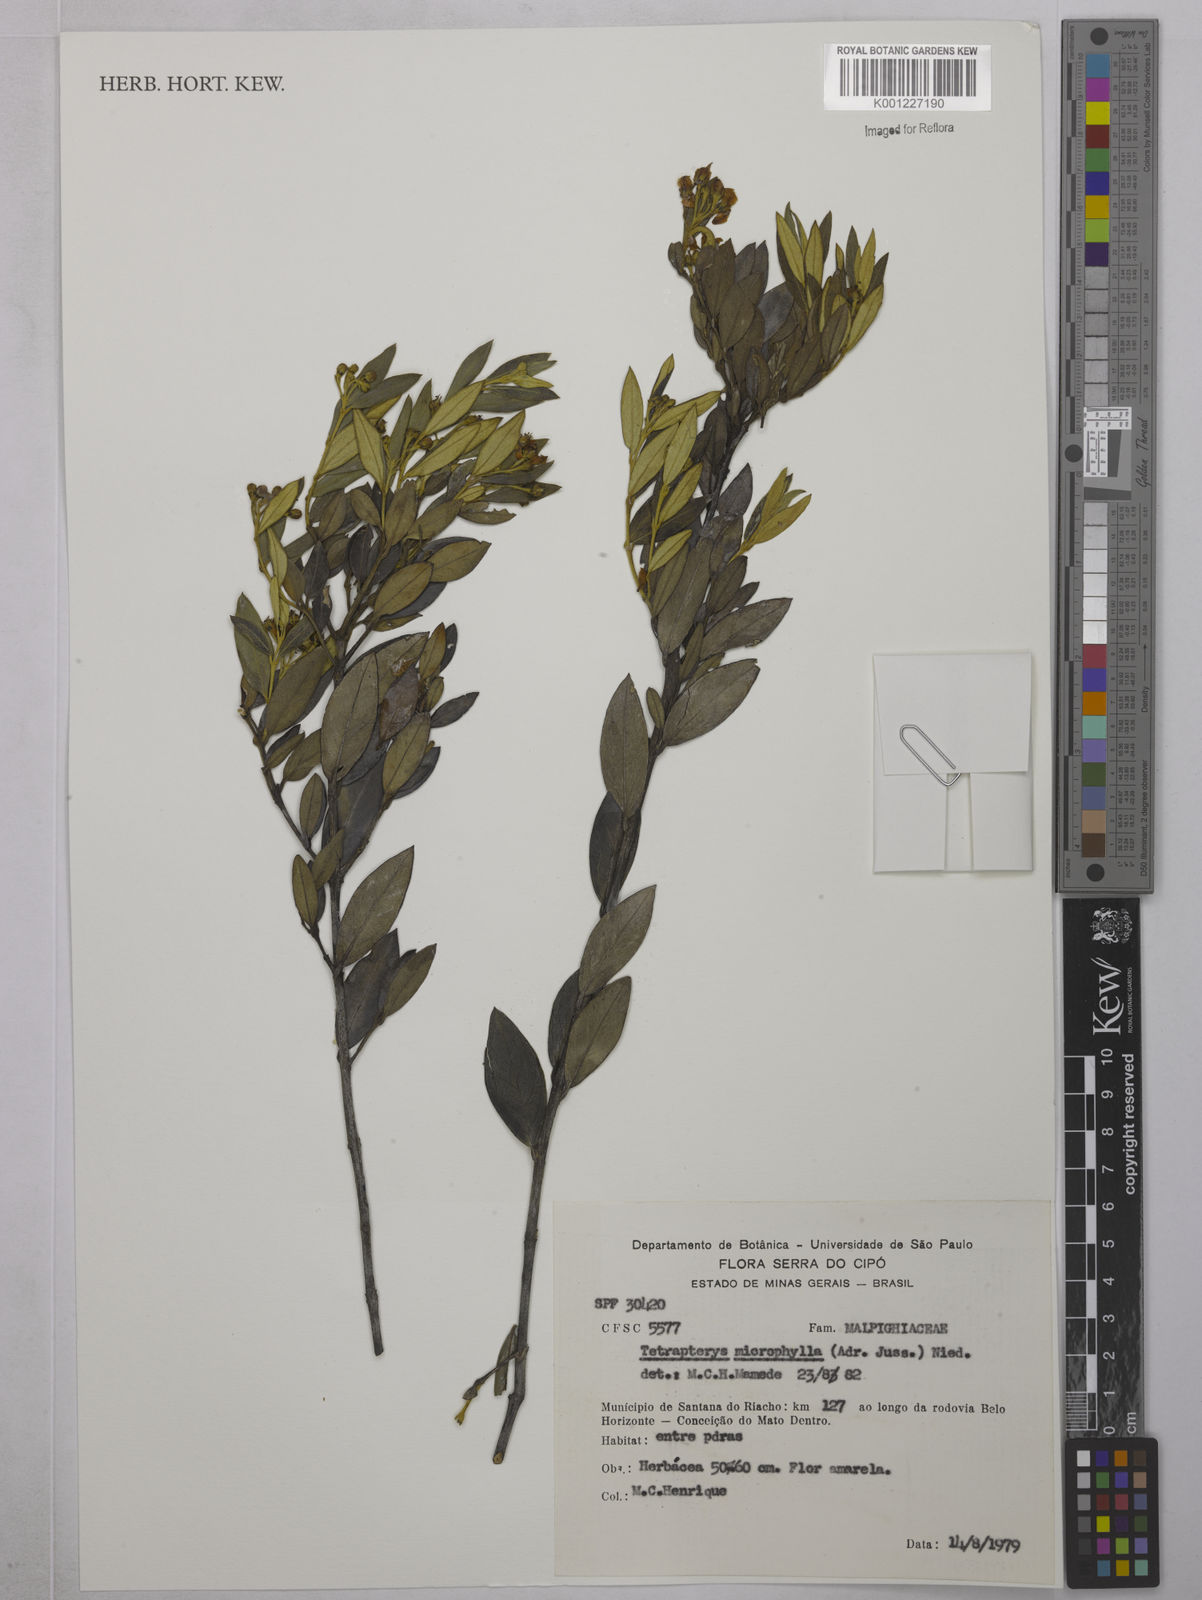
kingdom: Plantae
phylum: Tracheophyta
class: Magnoliopsida
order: Malpighiales
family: Malpighiaceae
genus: Glicophyllum
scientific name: Glicophyllum microphyllum
